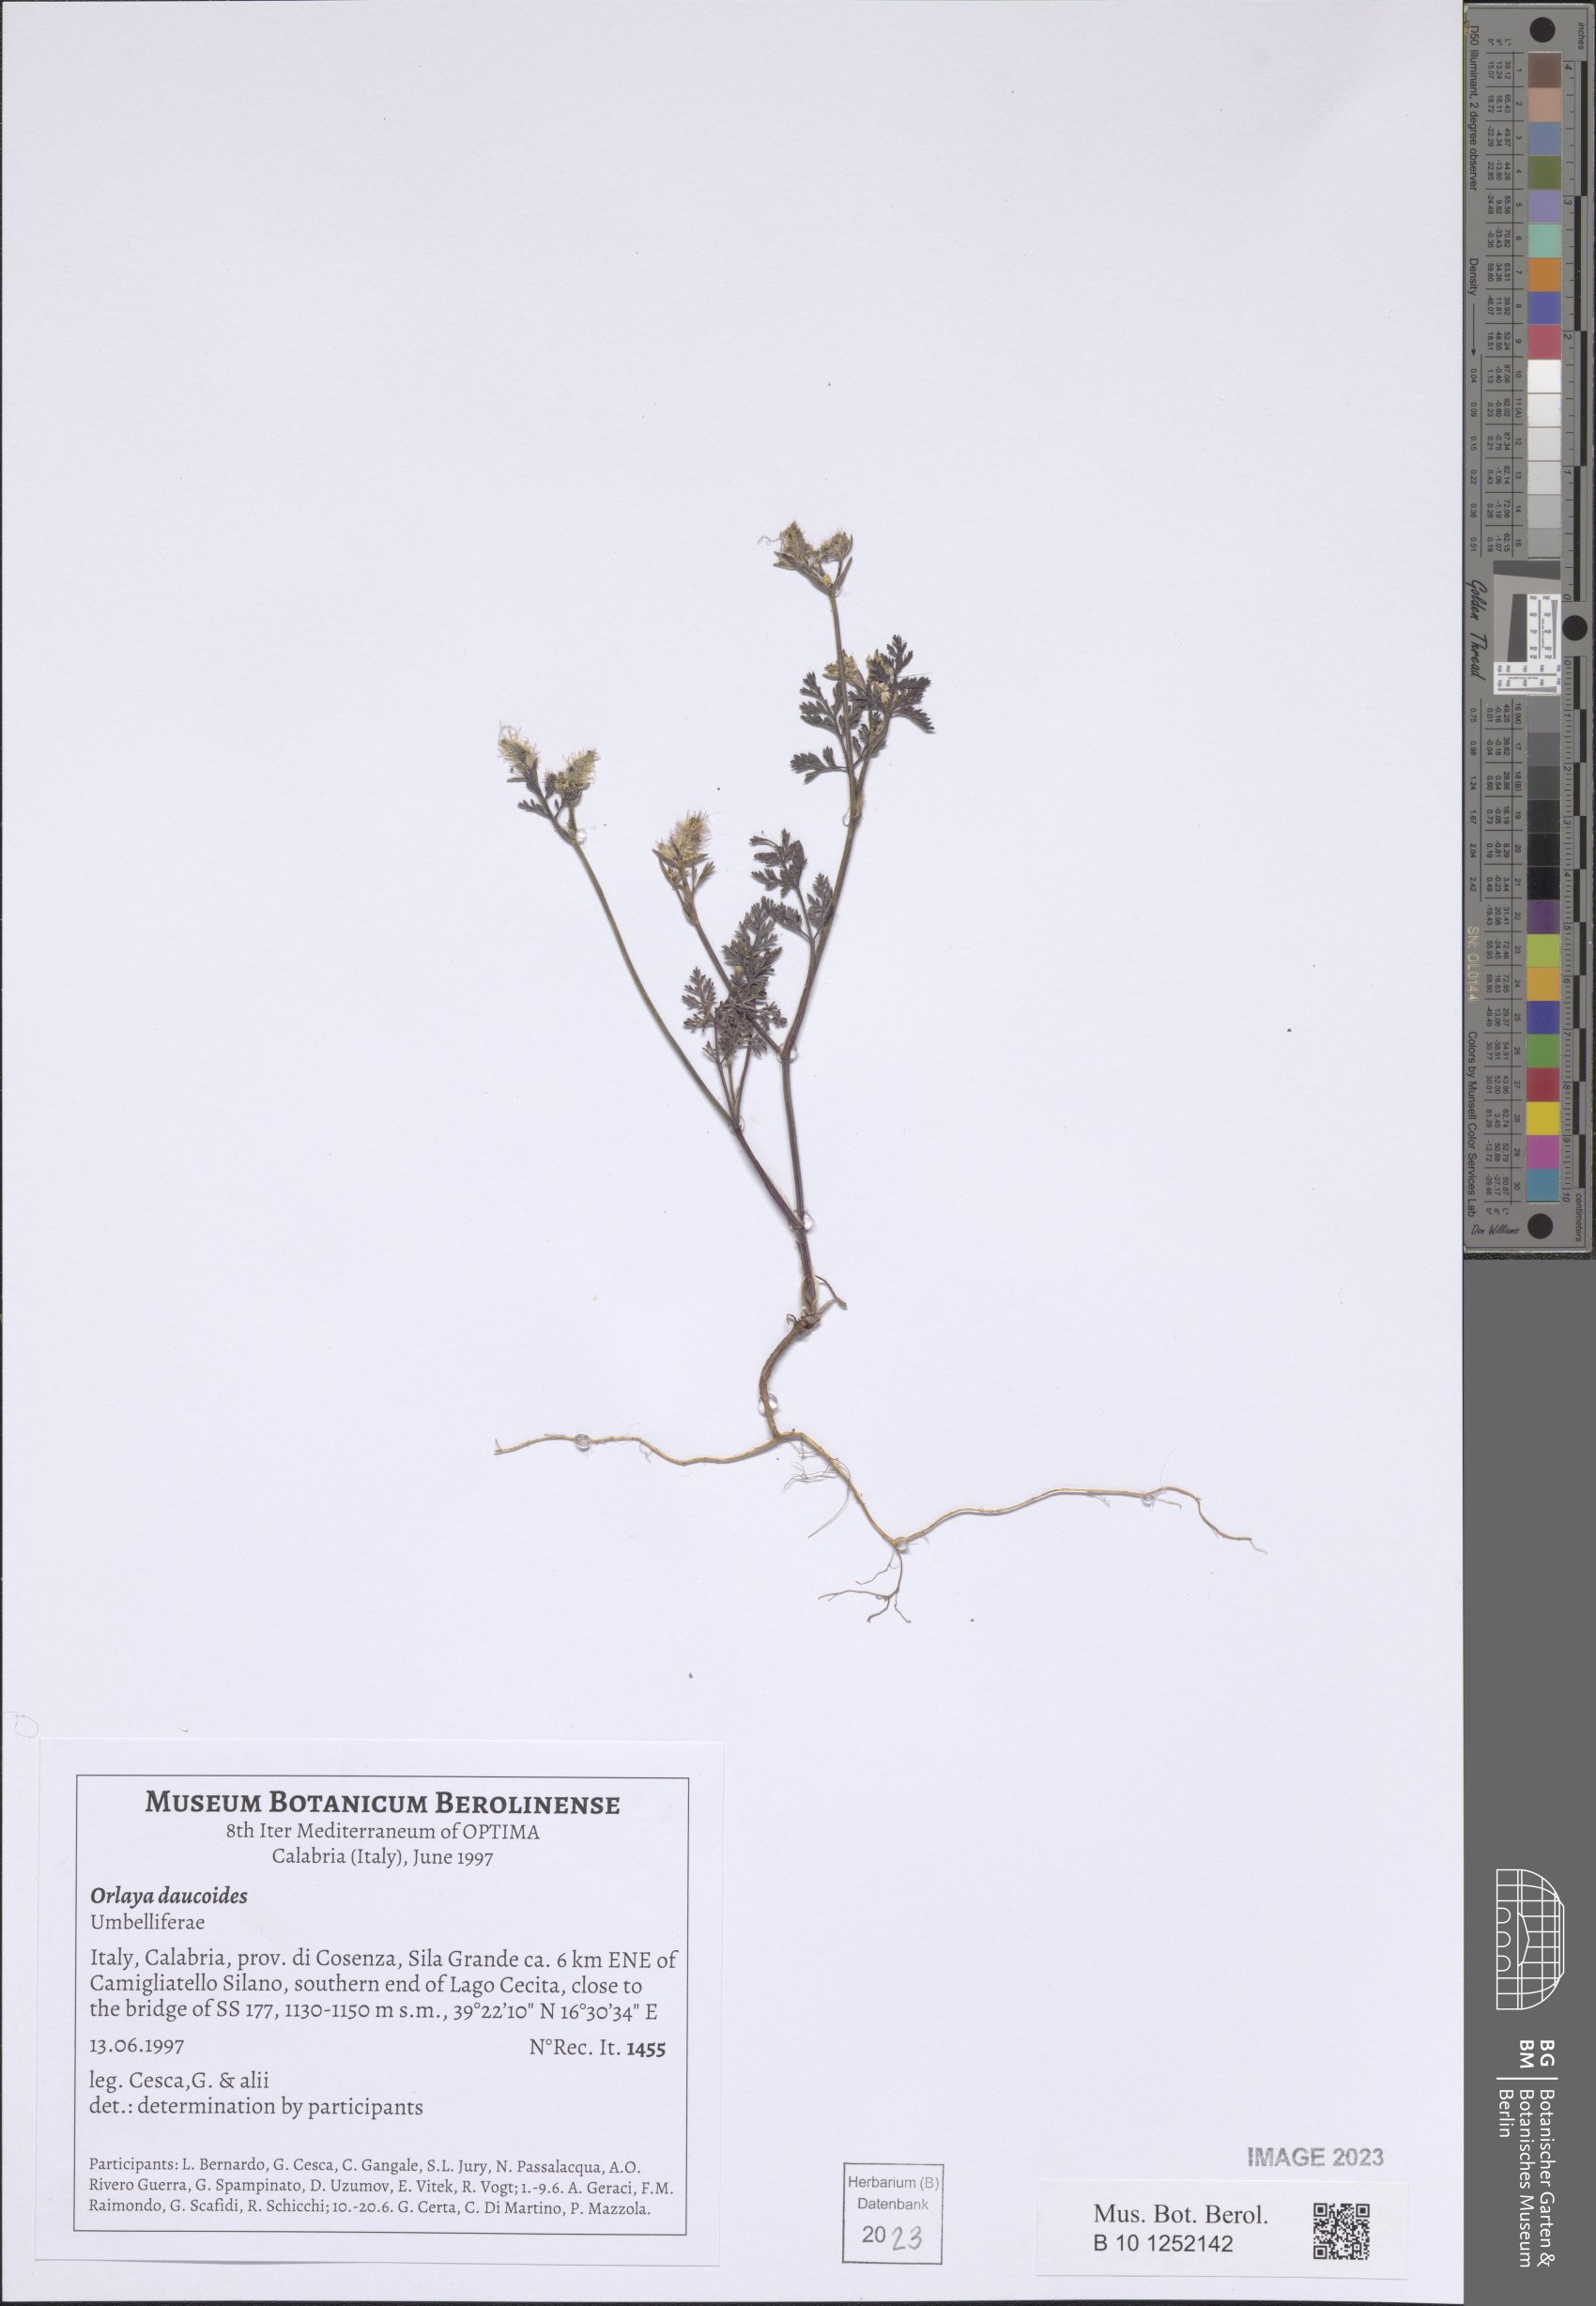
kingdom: Plantae
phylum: Tracheophyta
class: Magnoliopsida
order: Apiales
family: Apiaceae
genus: Orlaya
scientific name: Orlaya daucoides
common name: Flat-fruit orlaya
